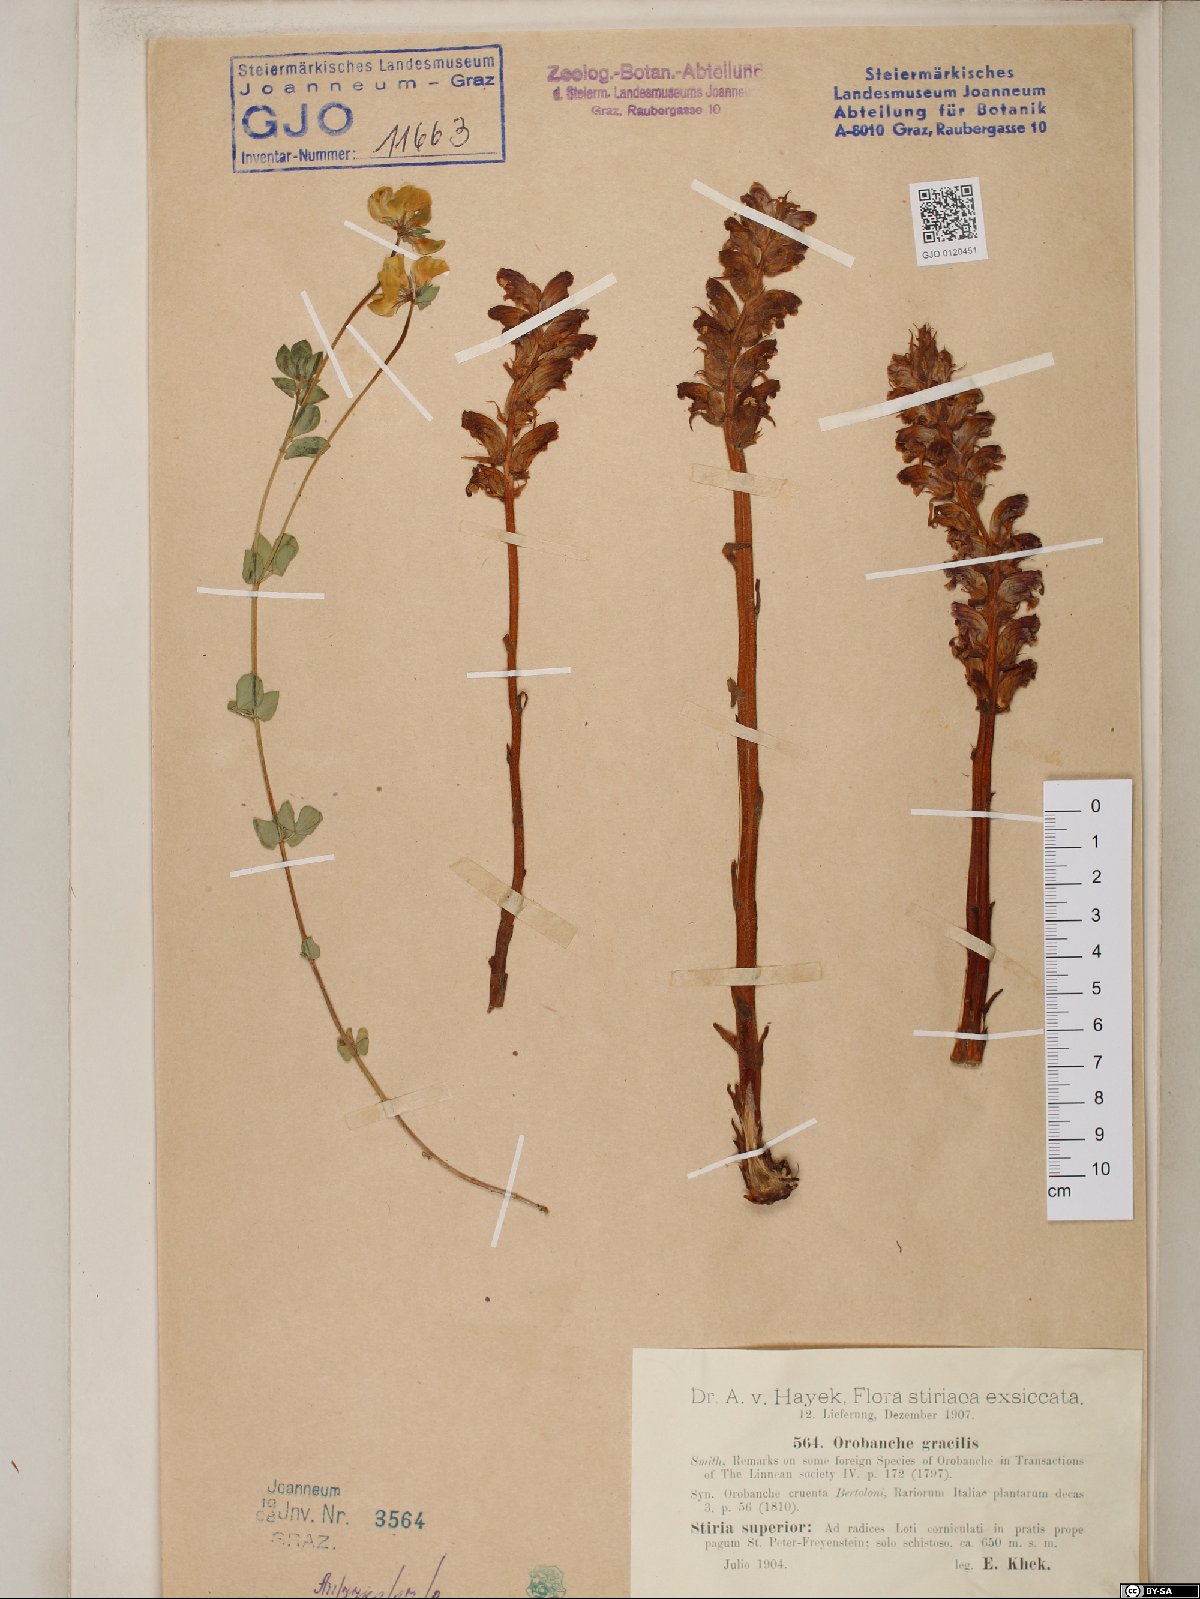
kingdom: Plantae
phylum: Tracheophyta
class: Magnoliopsida
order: Lamiales
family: Orobanchaceae
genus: Orobanche
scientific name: Orobanche gracilis
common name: Slender broomrape
